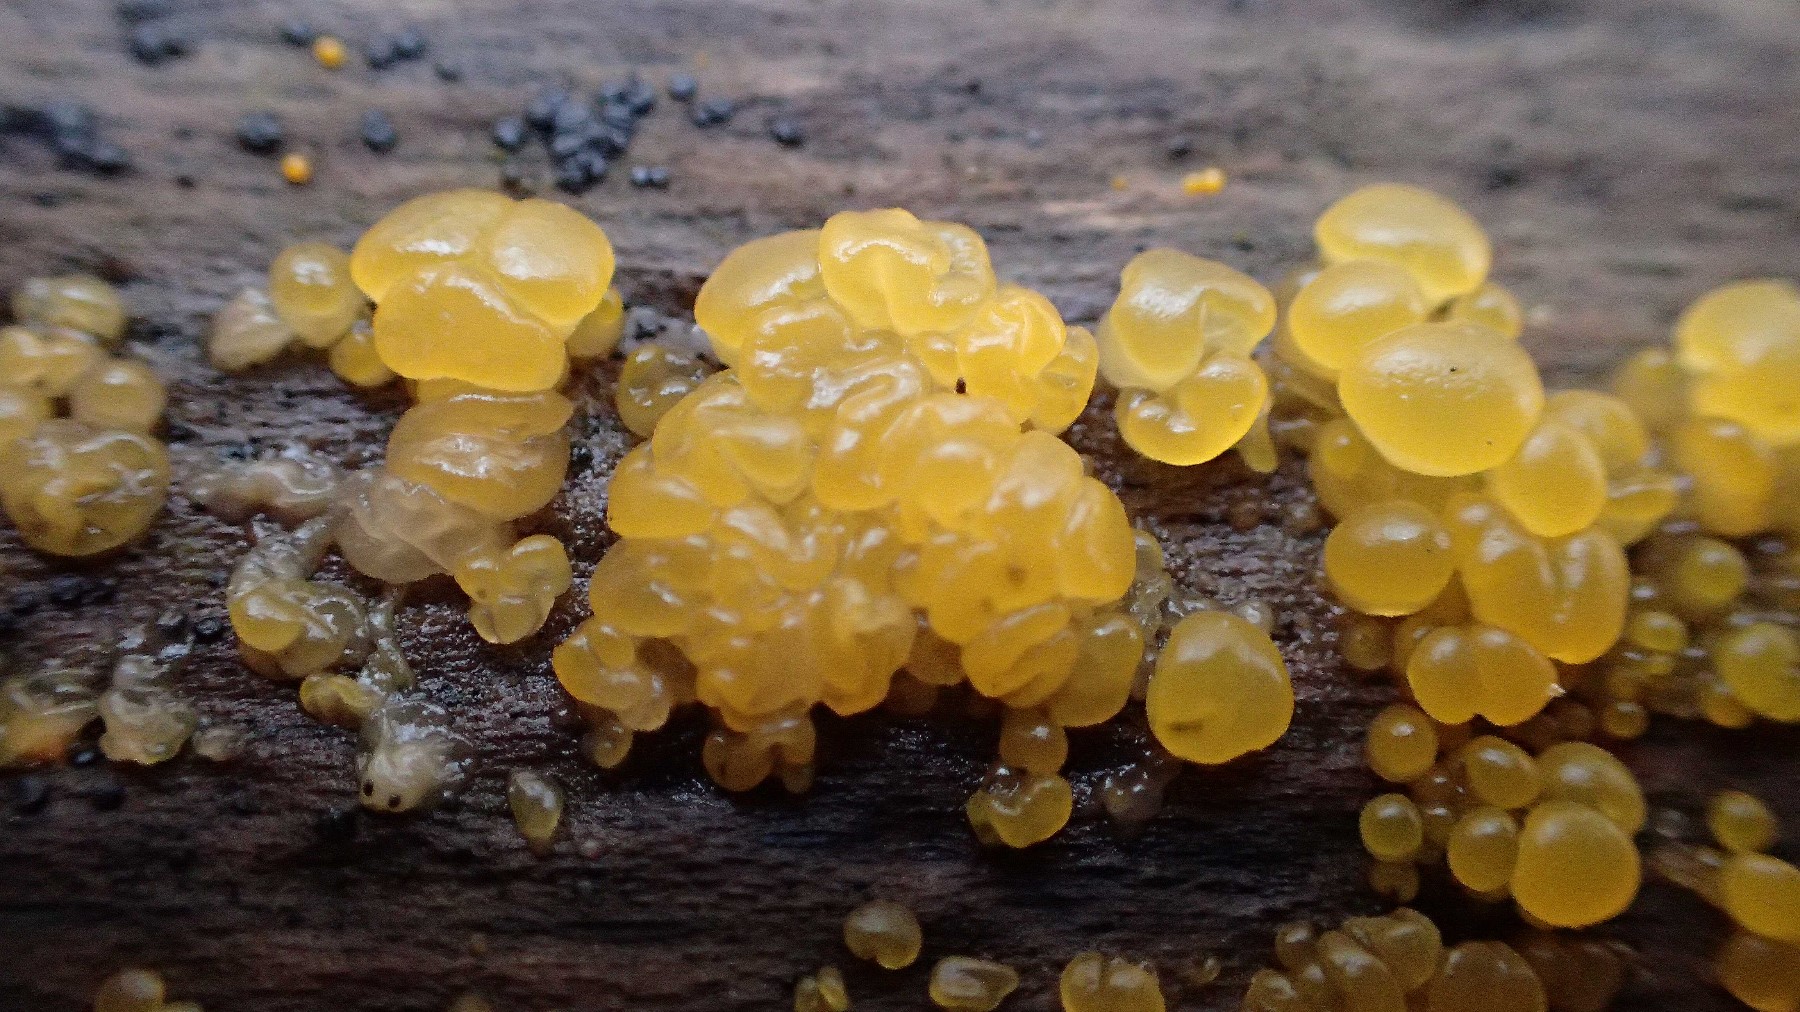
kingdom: Fungi
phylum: Basidiomycota
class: Dacrymycetes
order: Dacrymycetales
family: Dacrymycetaceae
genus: Dacrymyces
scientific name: Dacrymyces
